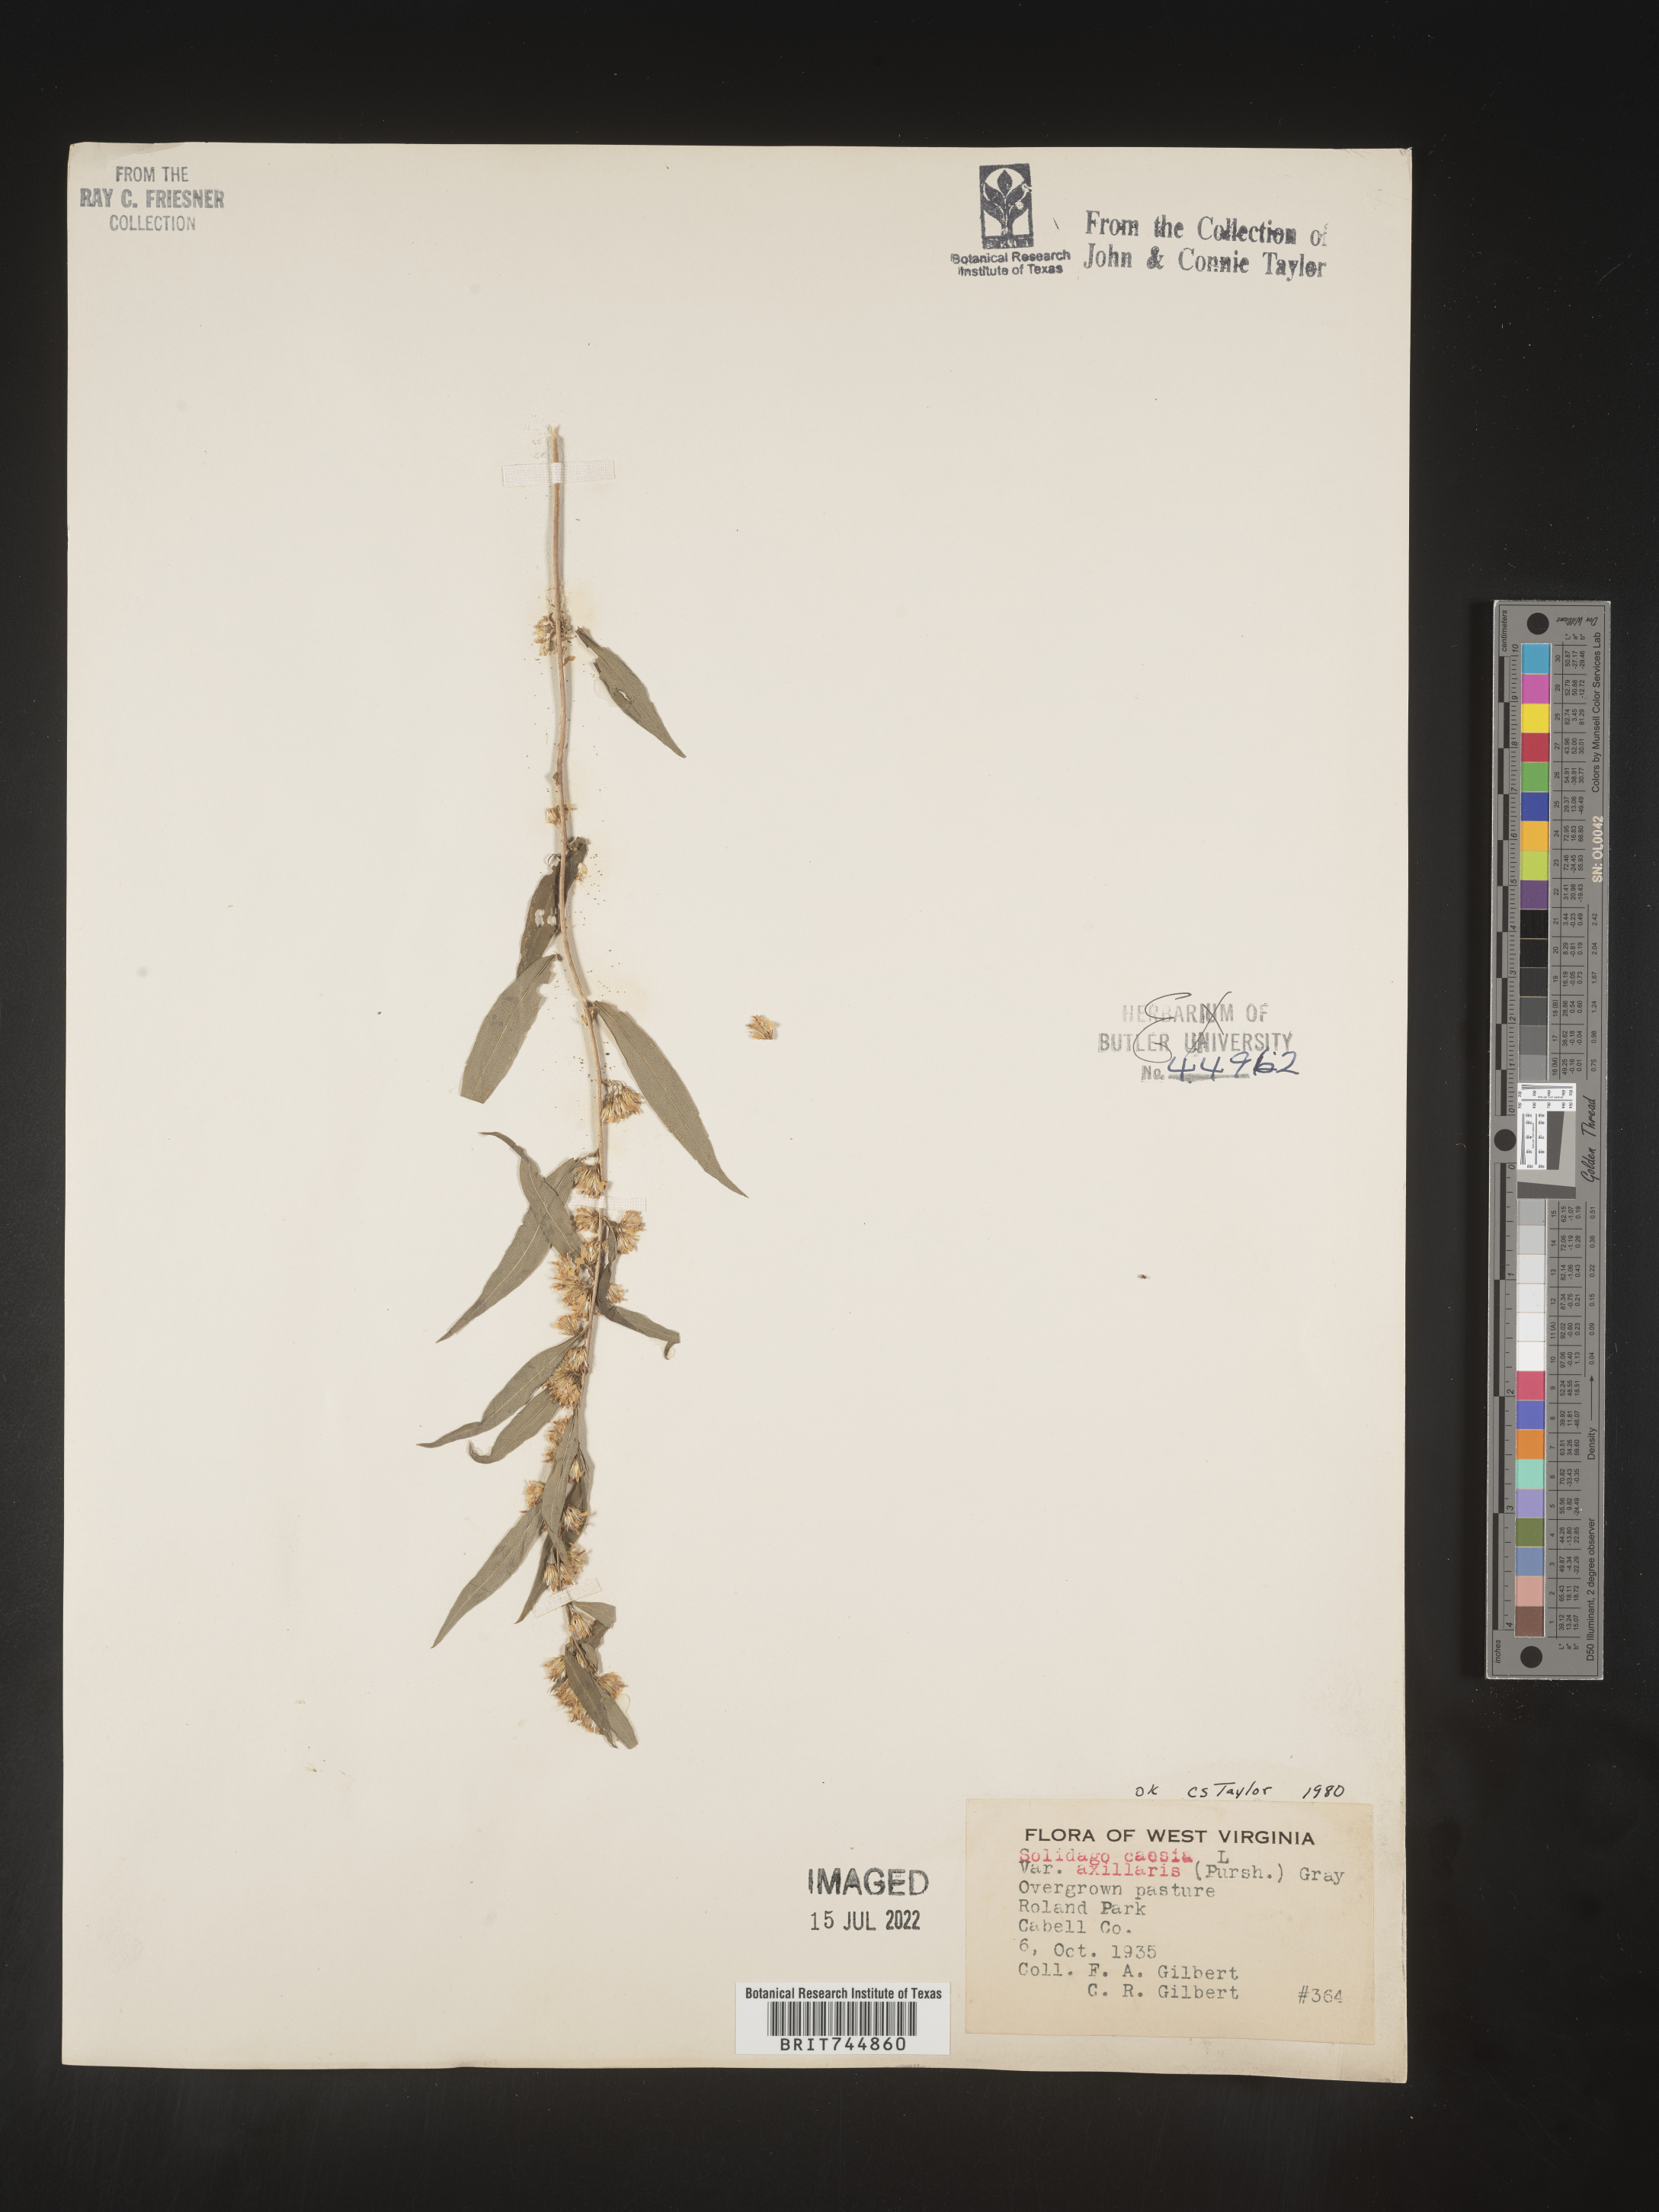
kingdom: Plantae
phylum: Tracheophyta
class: Magnoliopsida
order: Asterales
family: Asteraceae
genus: Solidago
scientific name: Solidago caesia
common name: Woodland goldenrod
